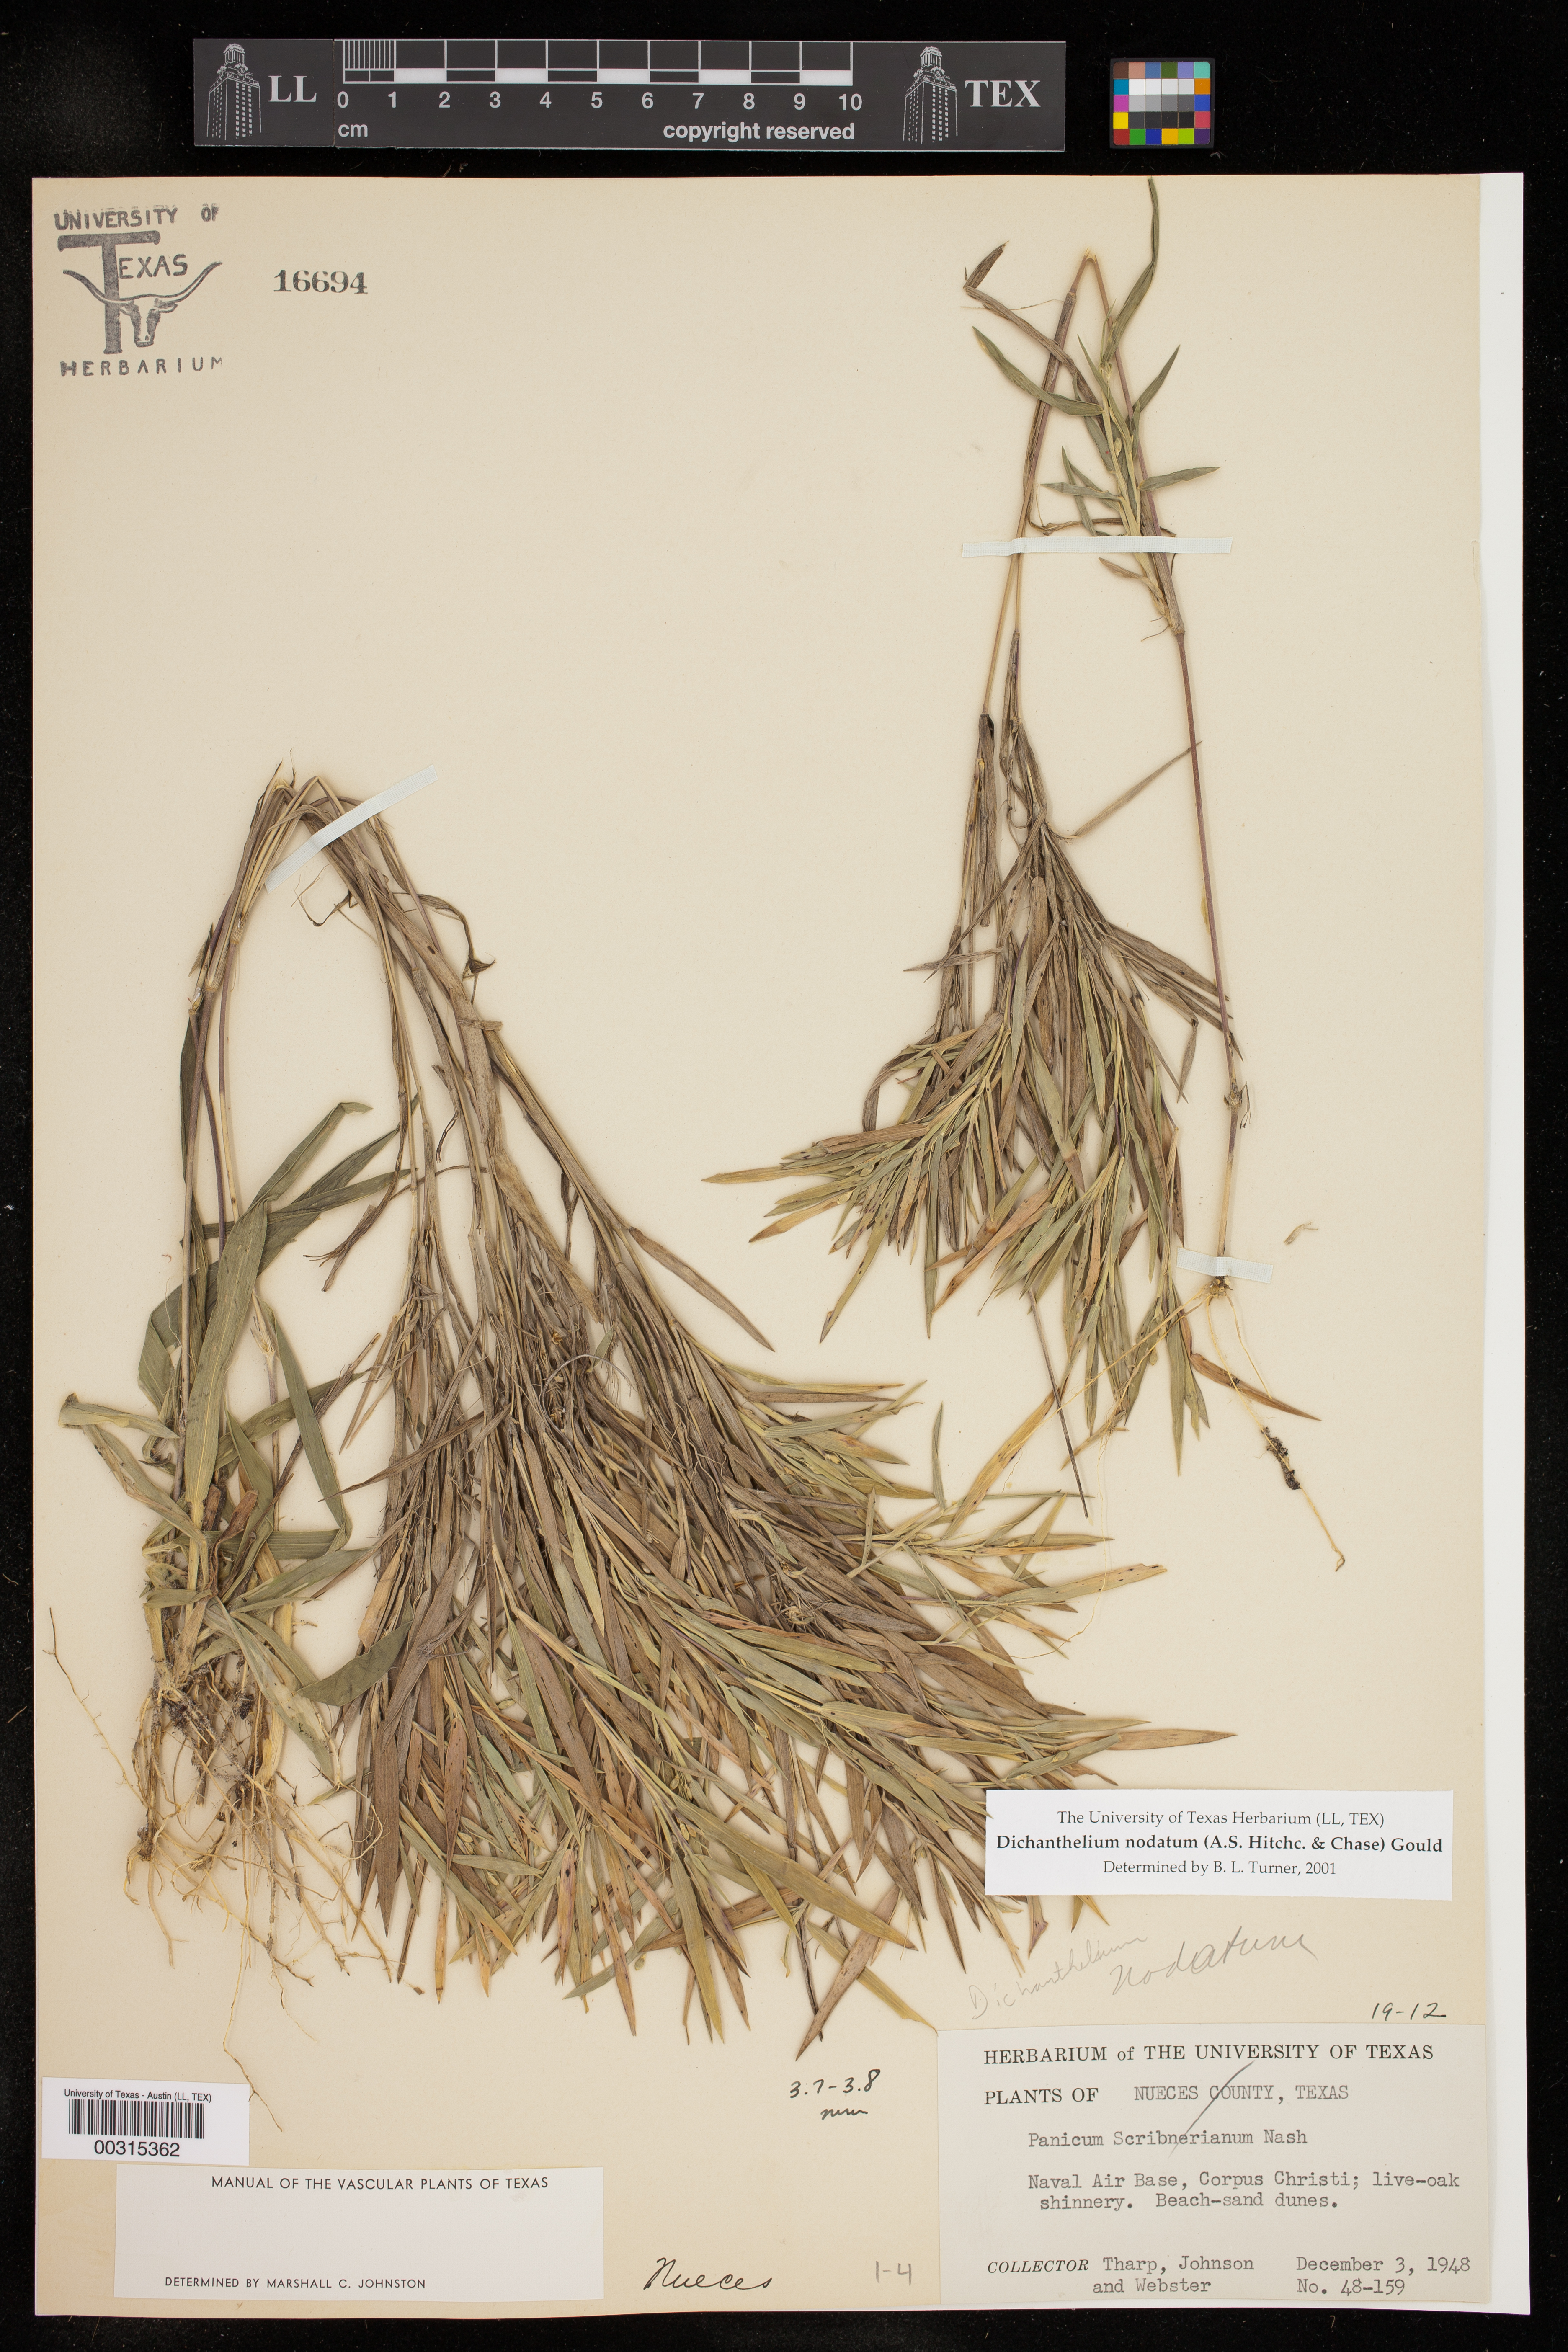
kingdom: Plantae
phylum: Tracheophyta
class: Liliopsida
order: Poales
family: Poaceae
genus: Dichanthelium
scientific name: Dichanthelium nodatum
